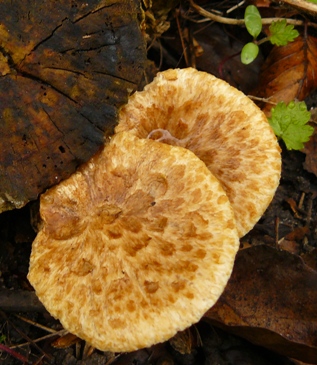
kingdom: Fungi
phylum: Basidiomycota
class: Agaricomycetes
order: Polyporales
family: Polyporaceae
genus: Cerioporus
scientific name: Cerioporus squamosus
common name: skællet stilkporesvamp
